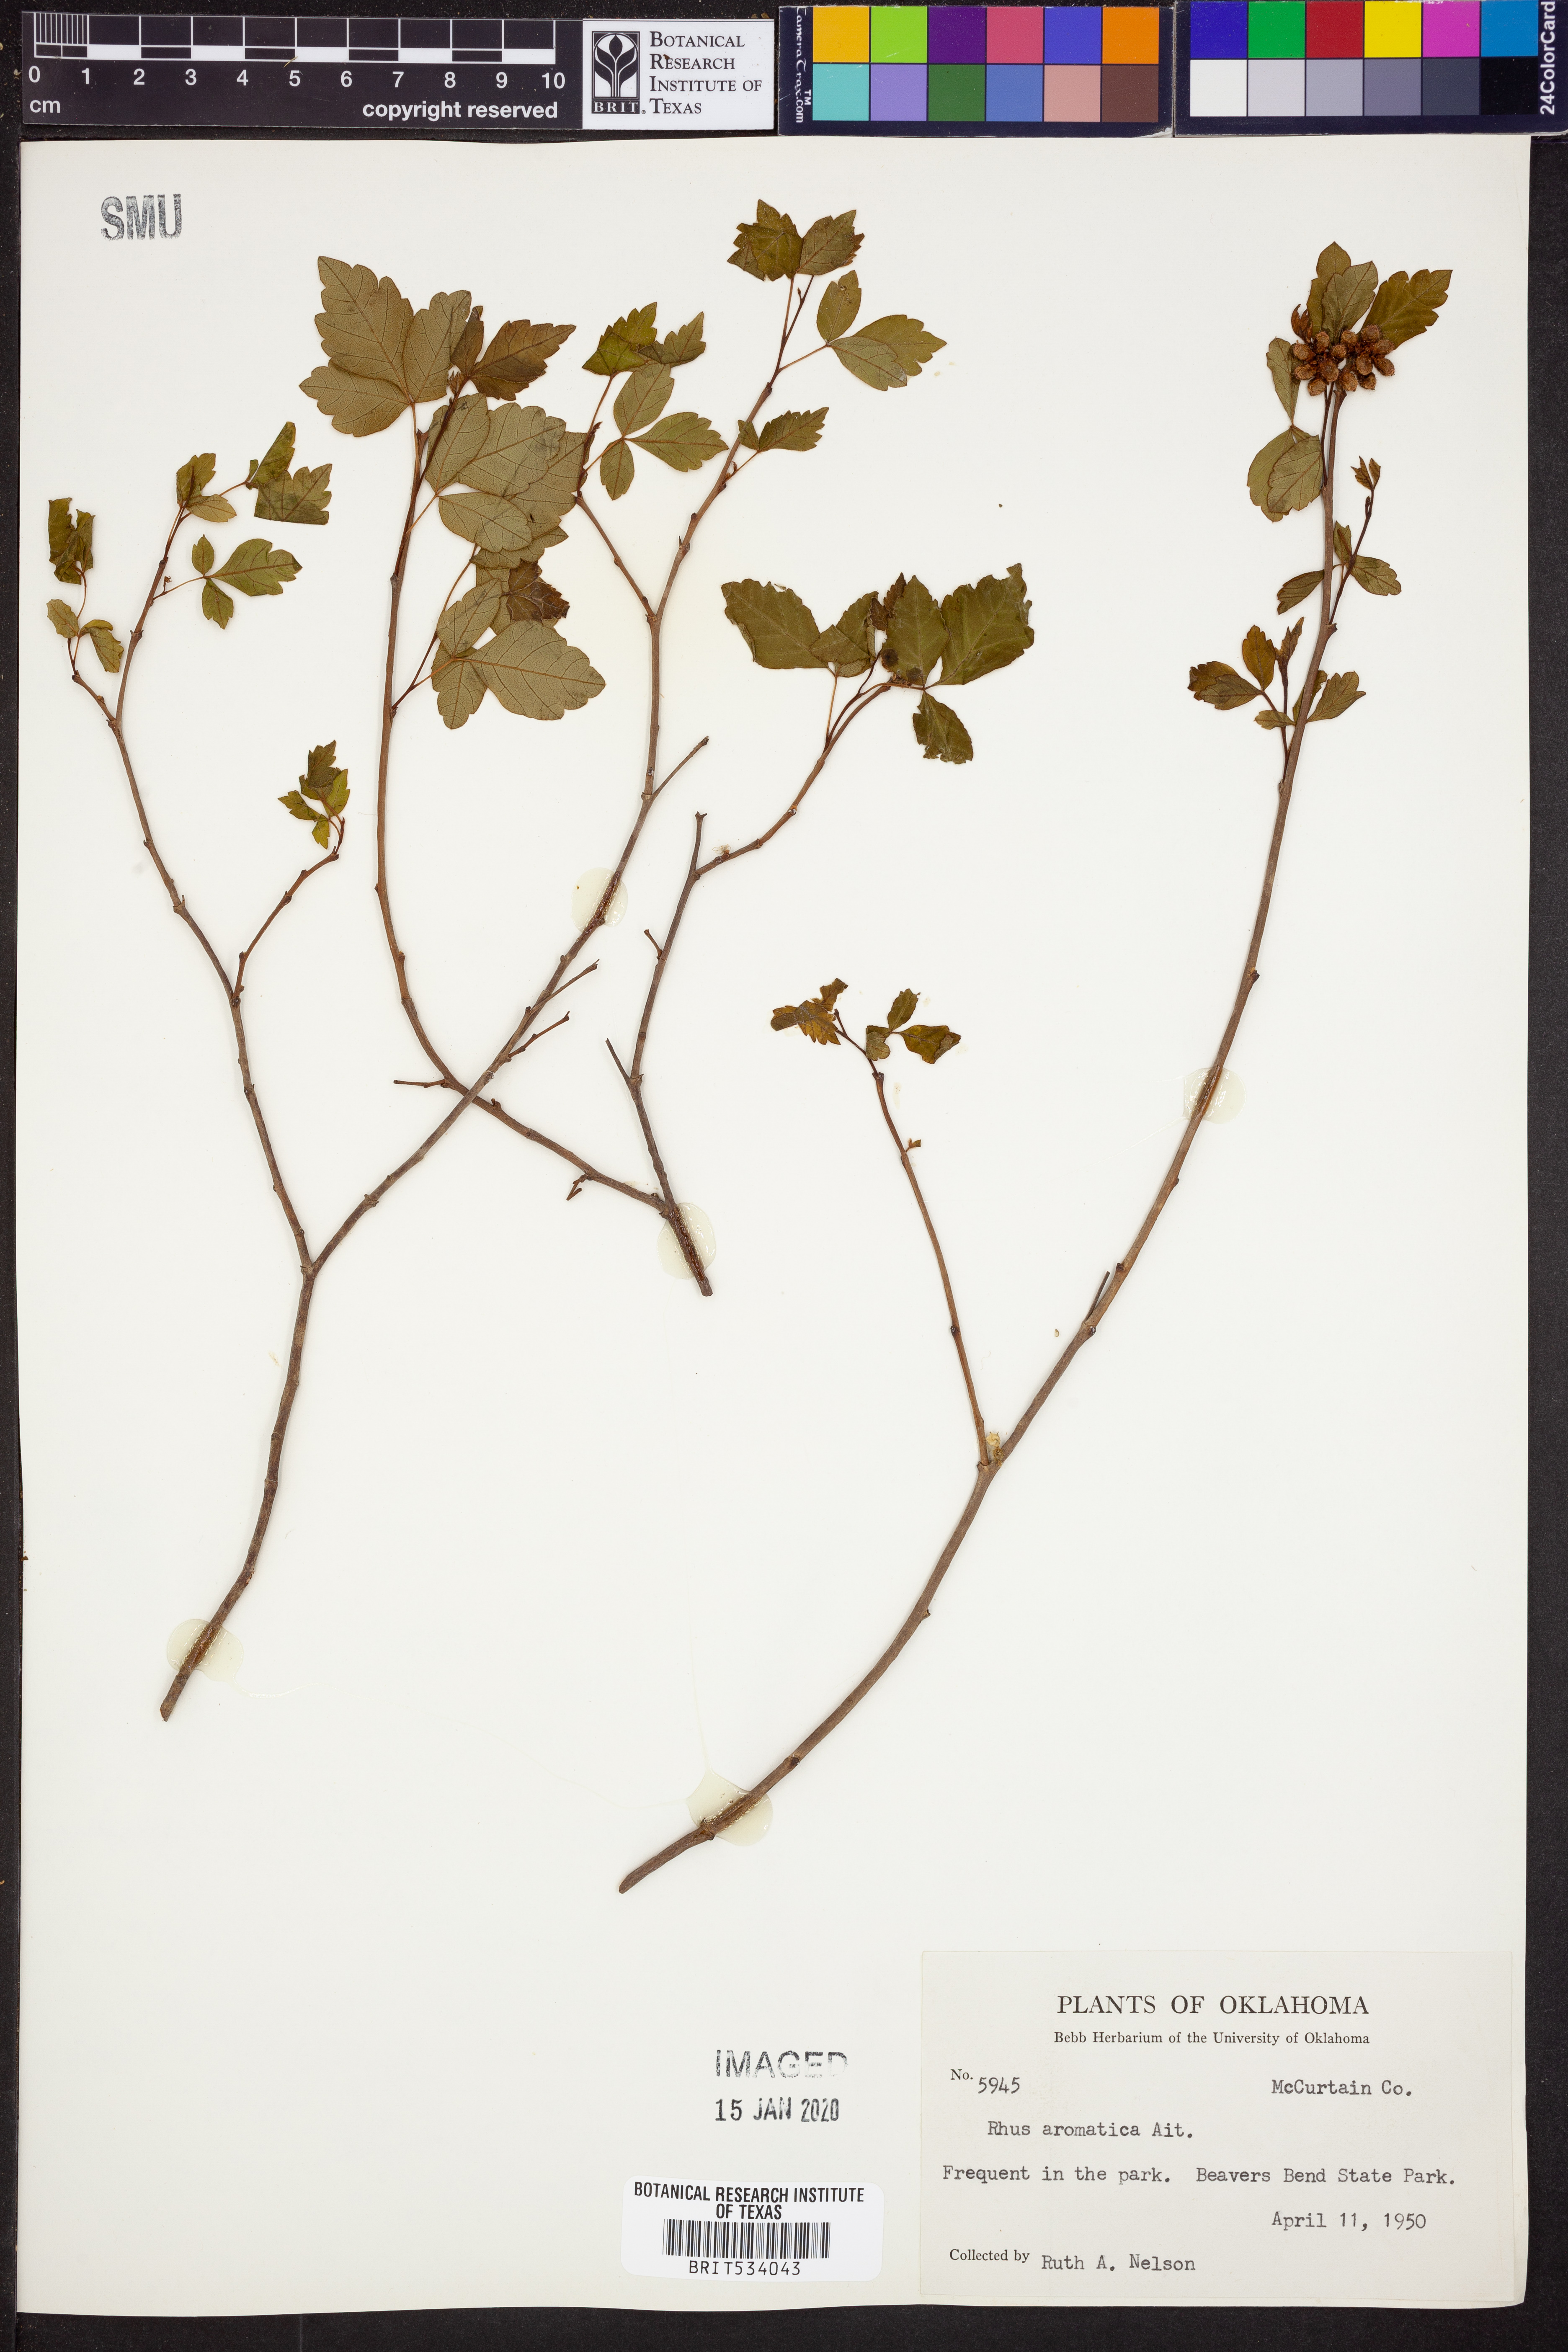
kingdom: Plantae
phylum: Tracheophyta
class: Magnoliopsida
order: Sapindales
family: Anacardiaceae
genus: Rhus
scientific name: Rhus aromatica
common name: Aromatic sumac
